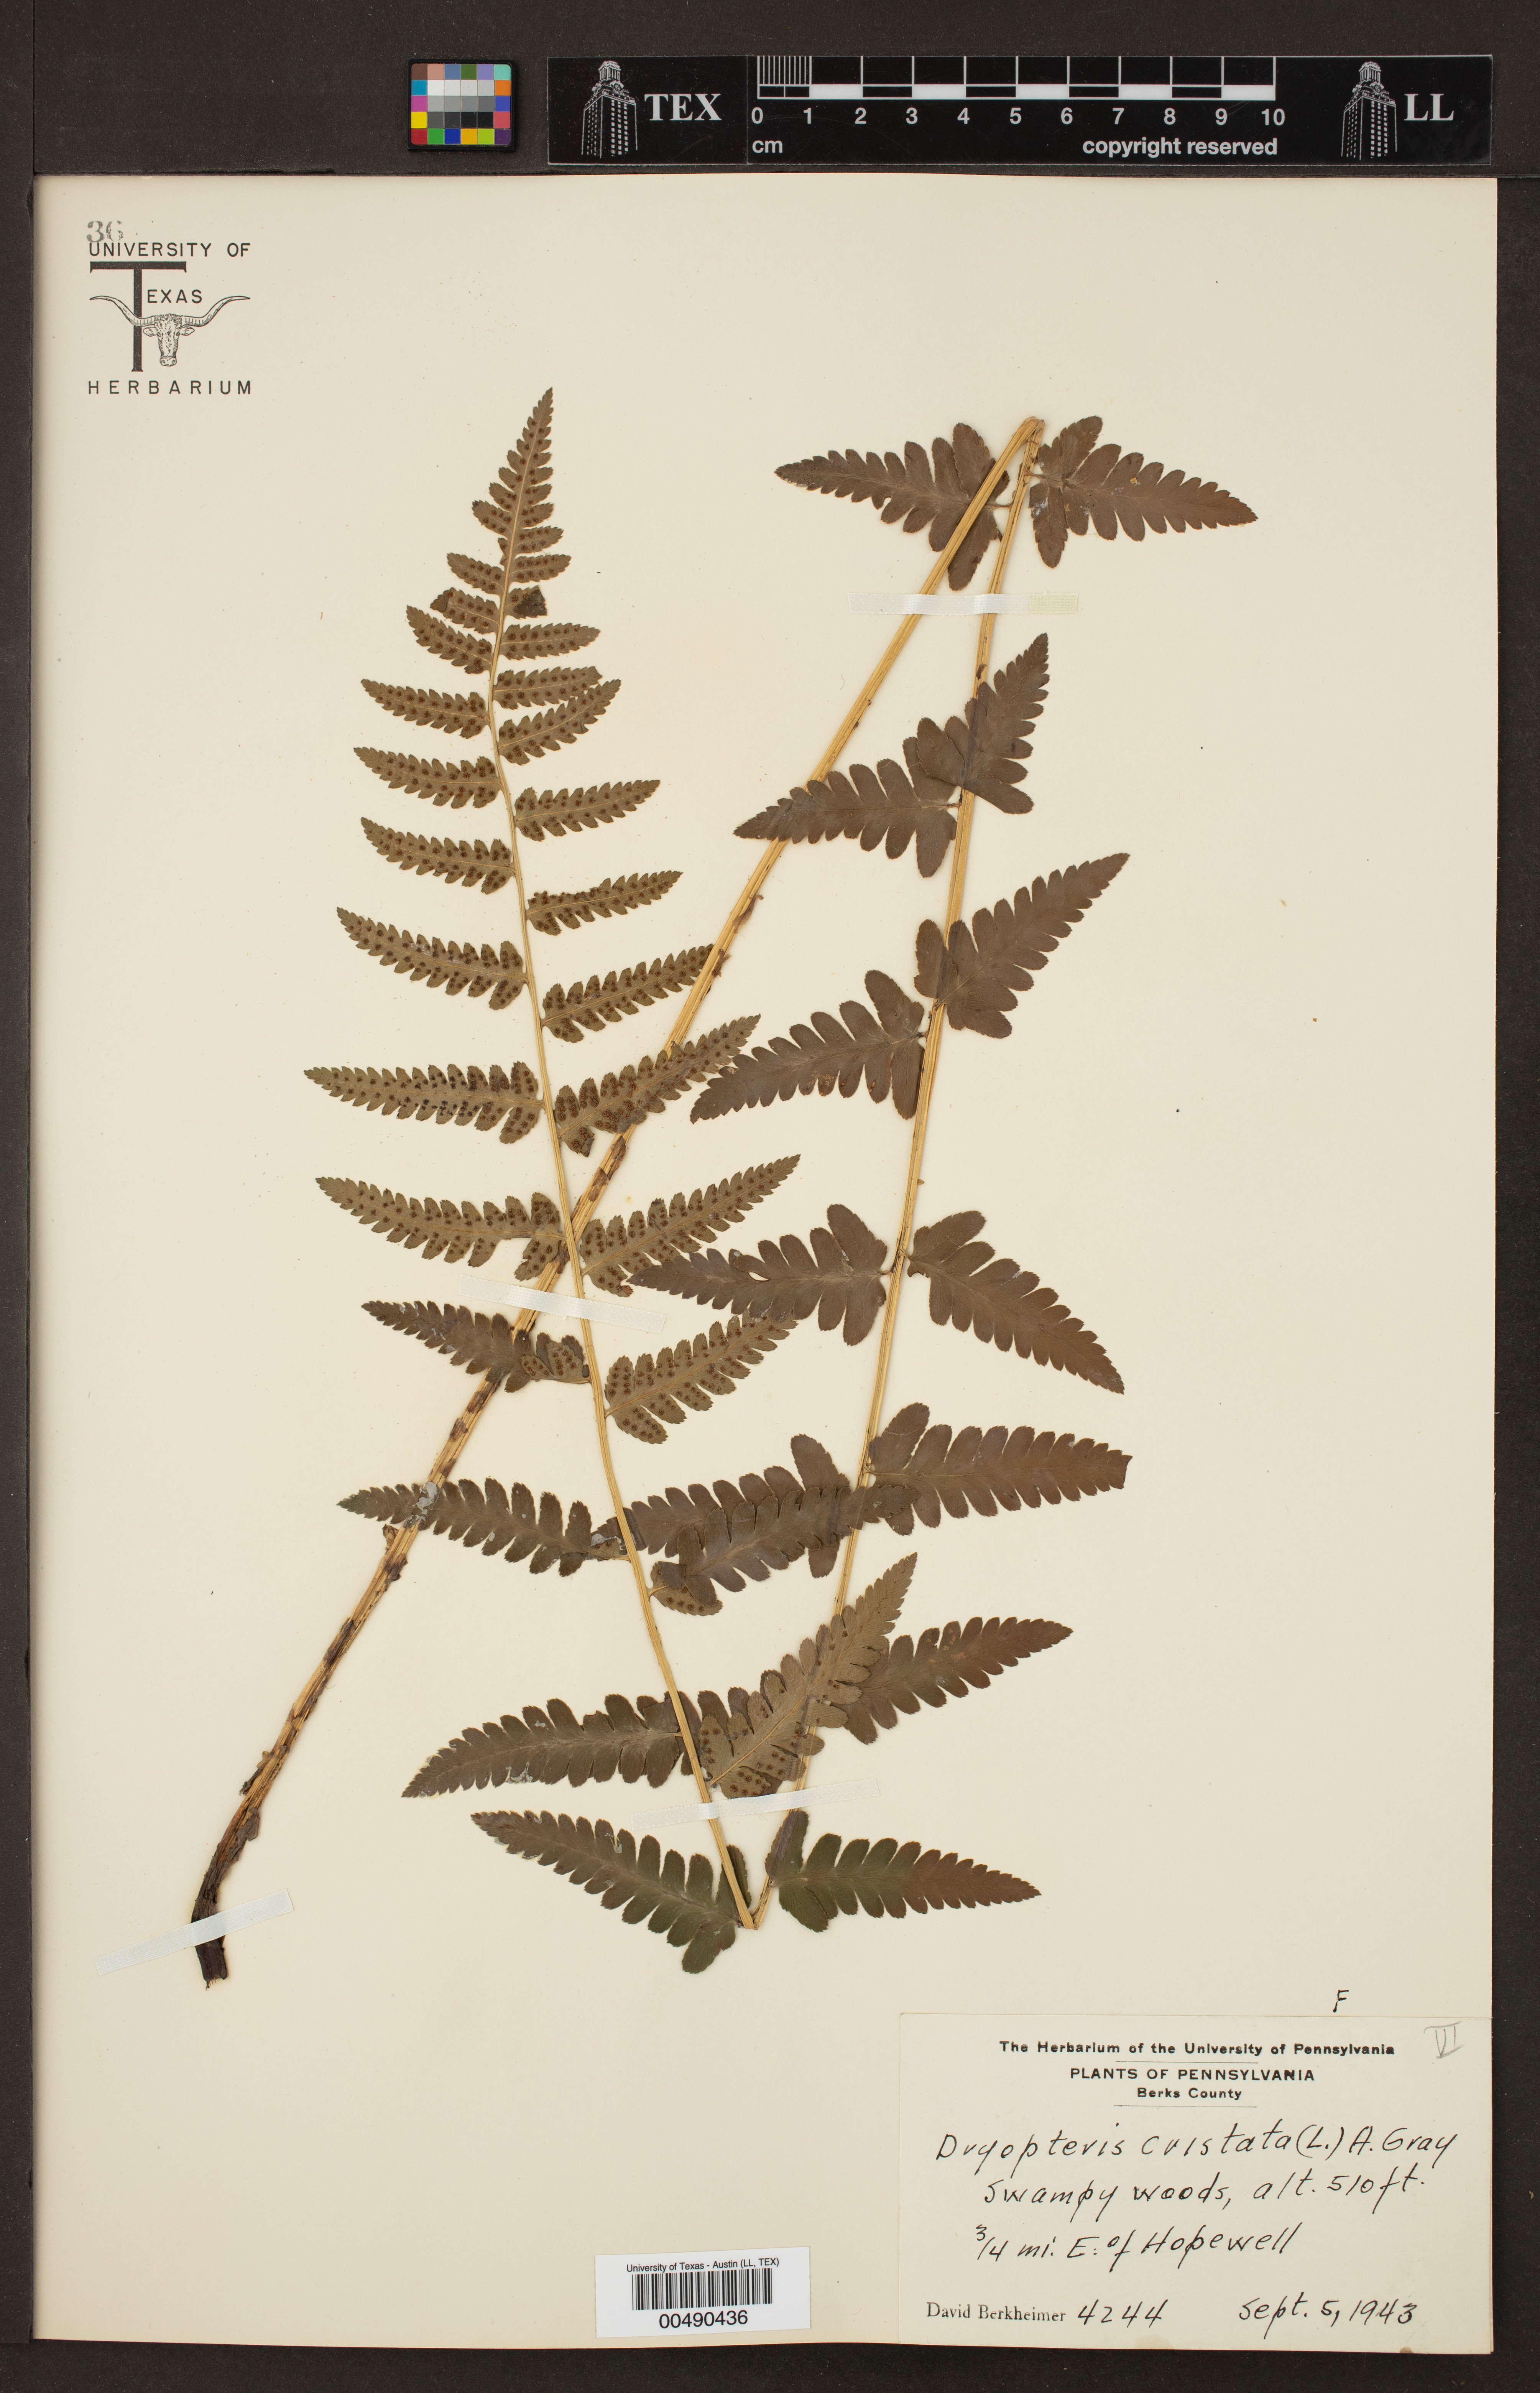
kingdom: Plantae
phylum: Tracheophyta
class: Polypodiopsida
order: Polypodiales
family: Dryopteridaceae
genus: Dryopteris
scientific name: Dryopteris cristata
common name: Crested wood fern
